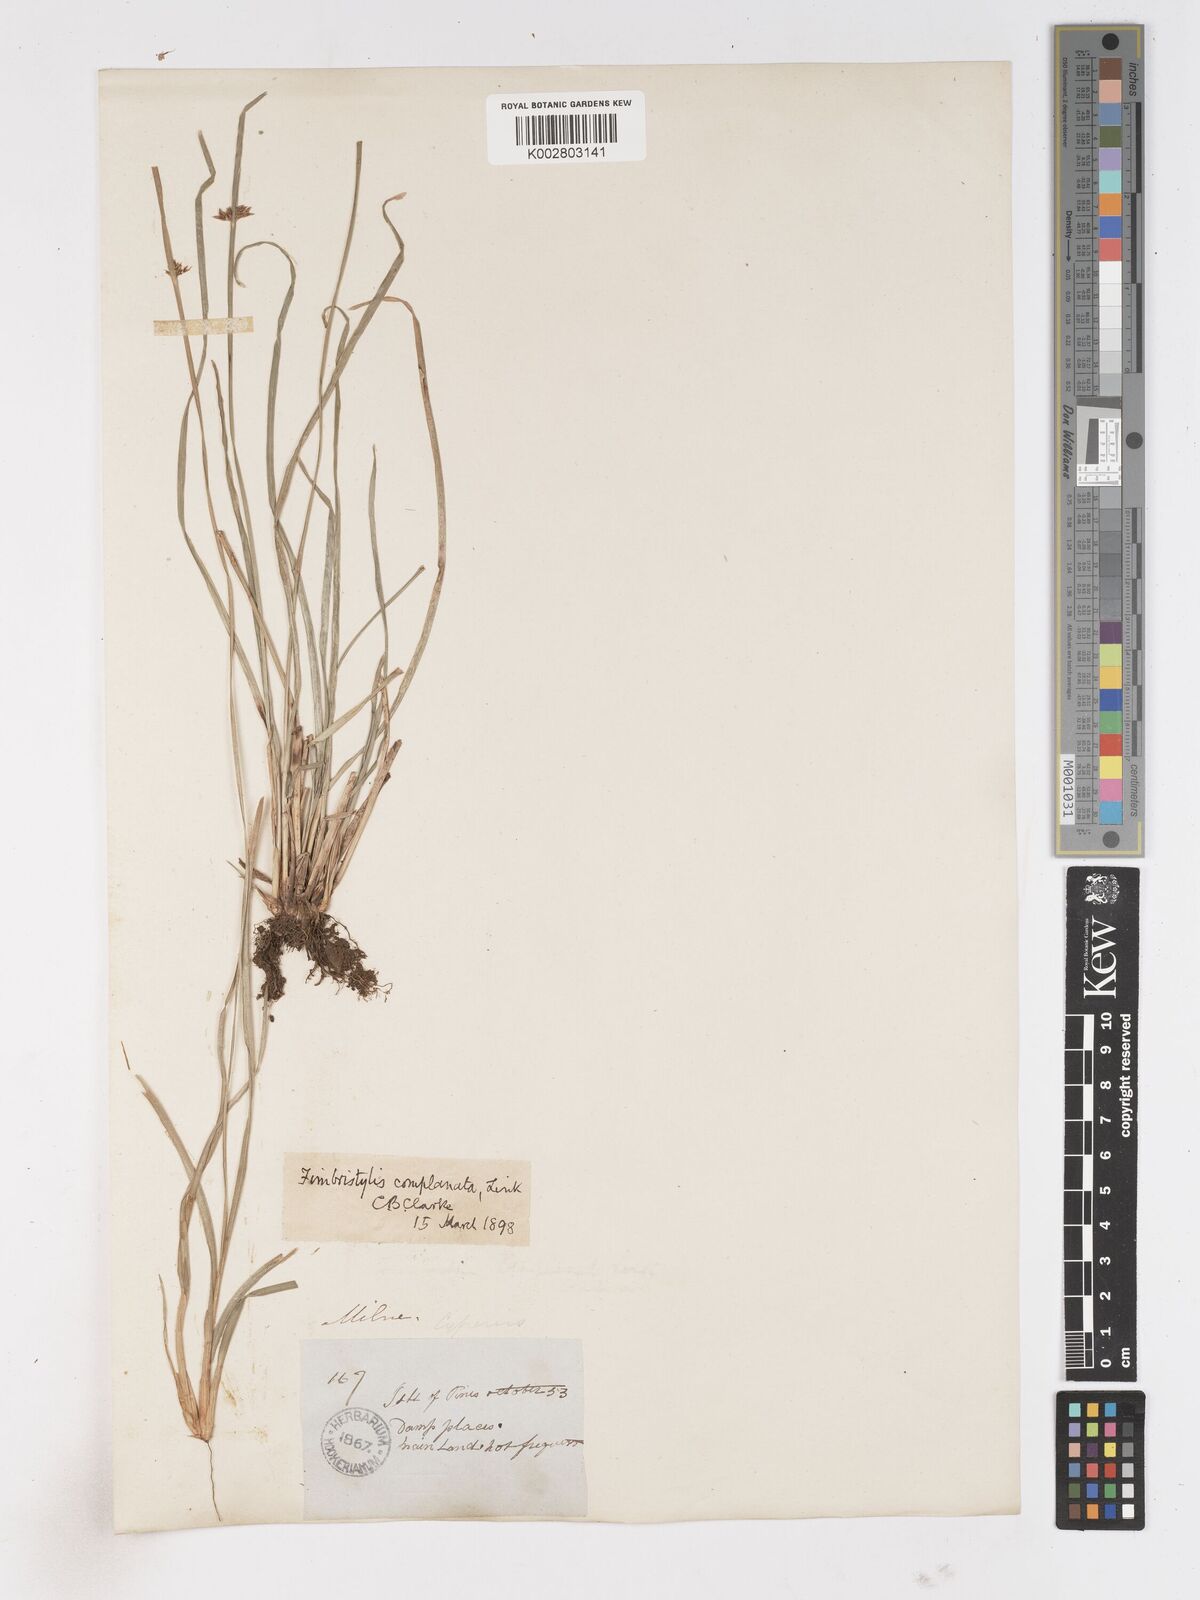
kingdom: Plantae
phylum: Tracheophyta
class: Liliopsida
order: Poales
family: Cyperaceae
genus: Fimbristylis
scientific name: Fimbristylis complanata
